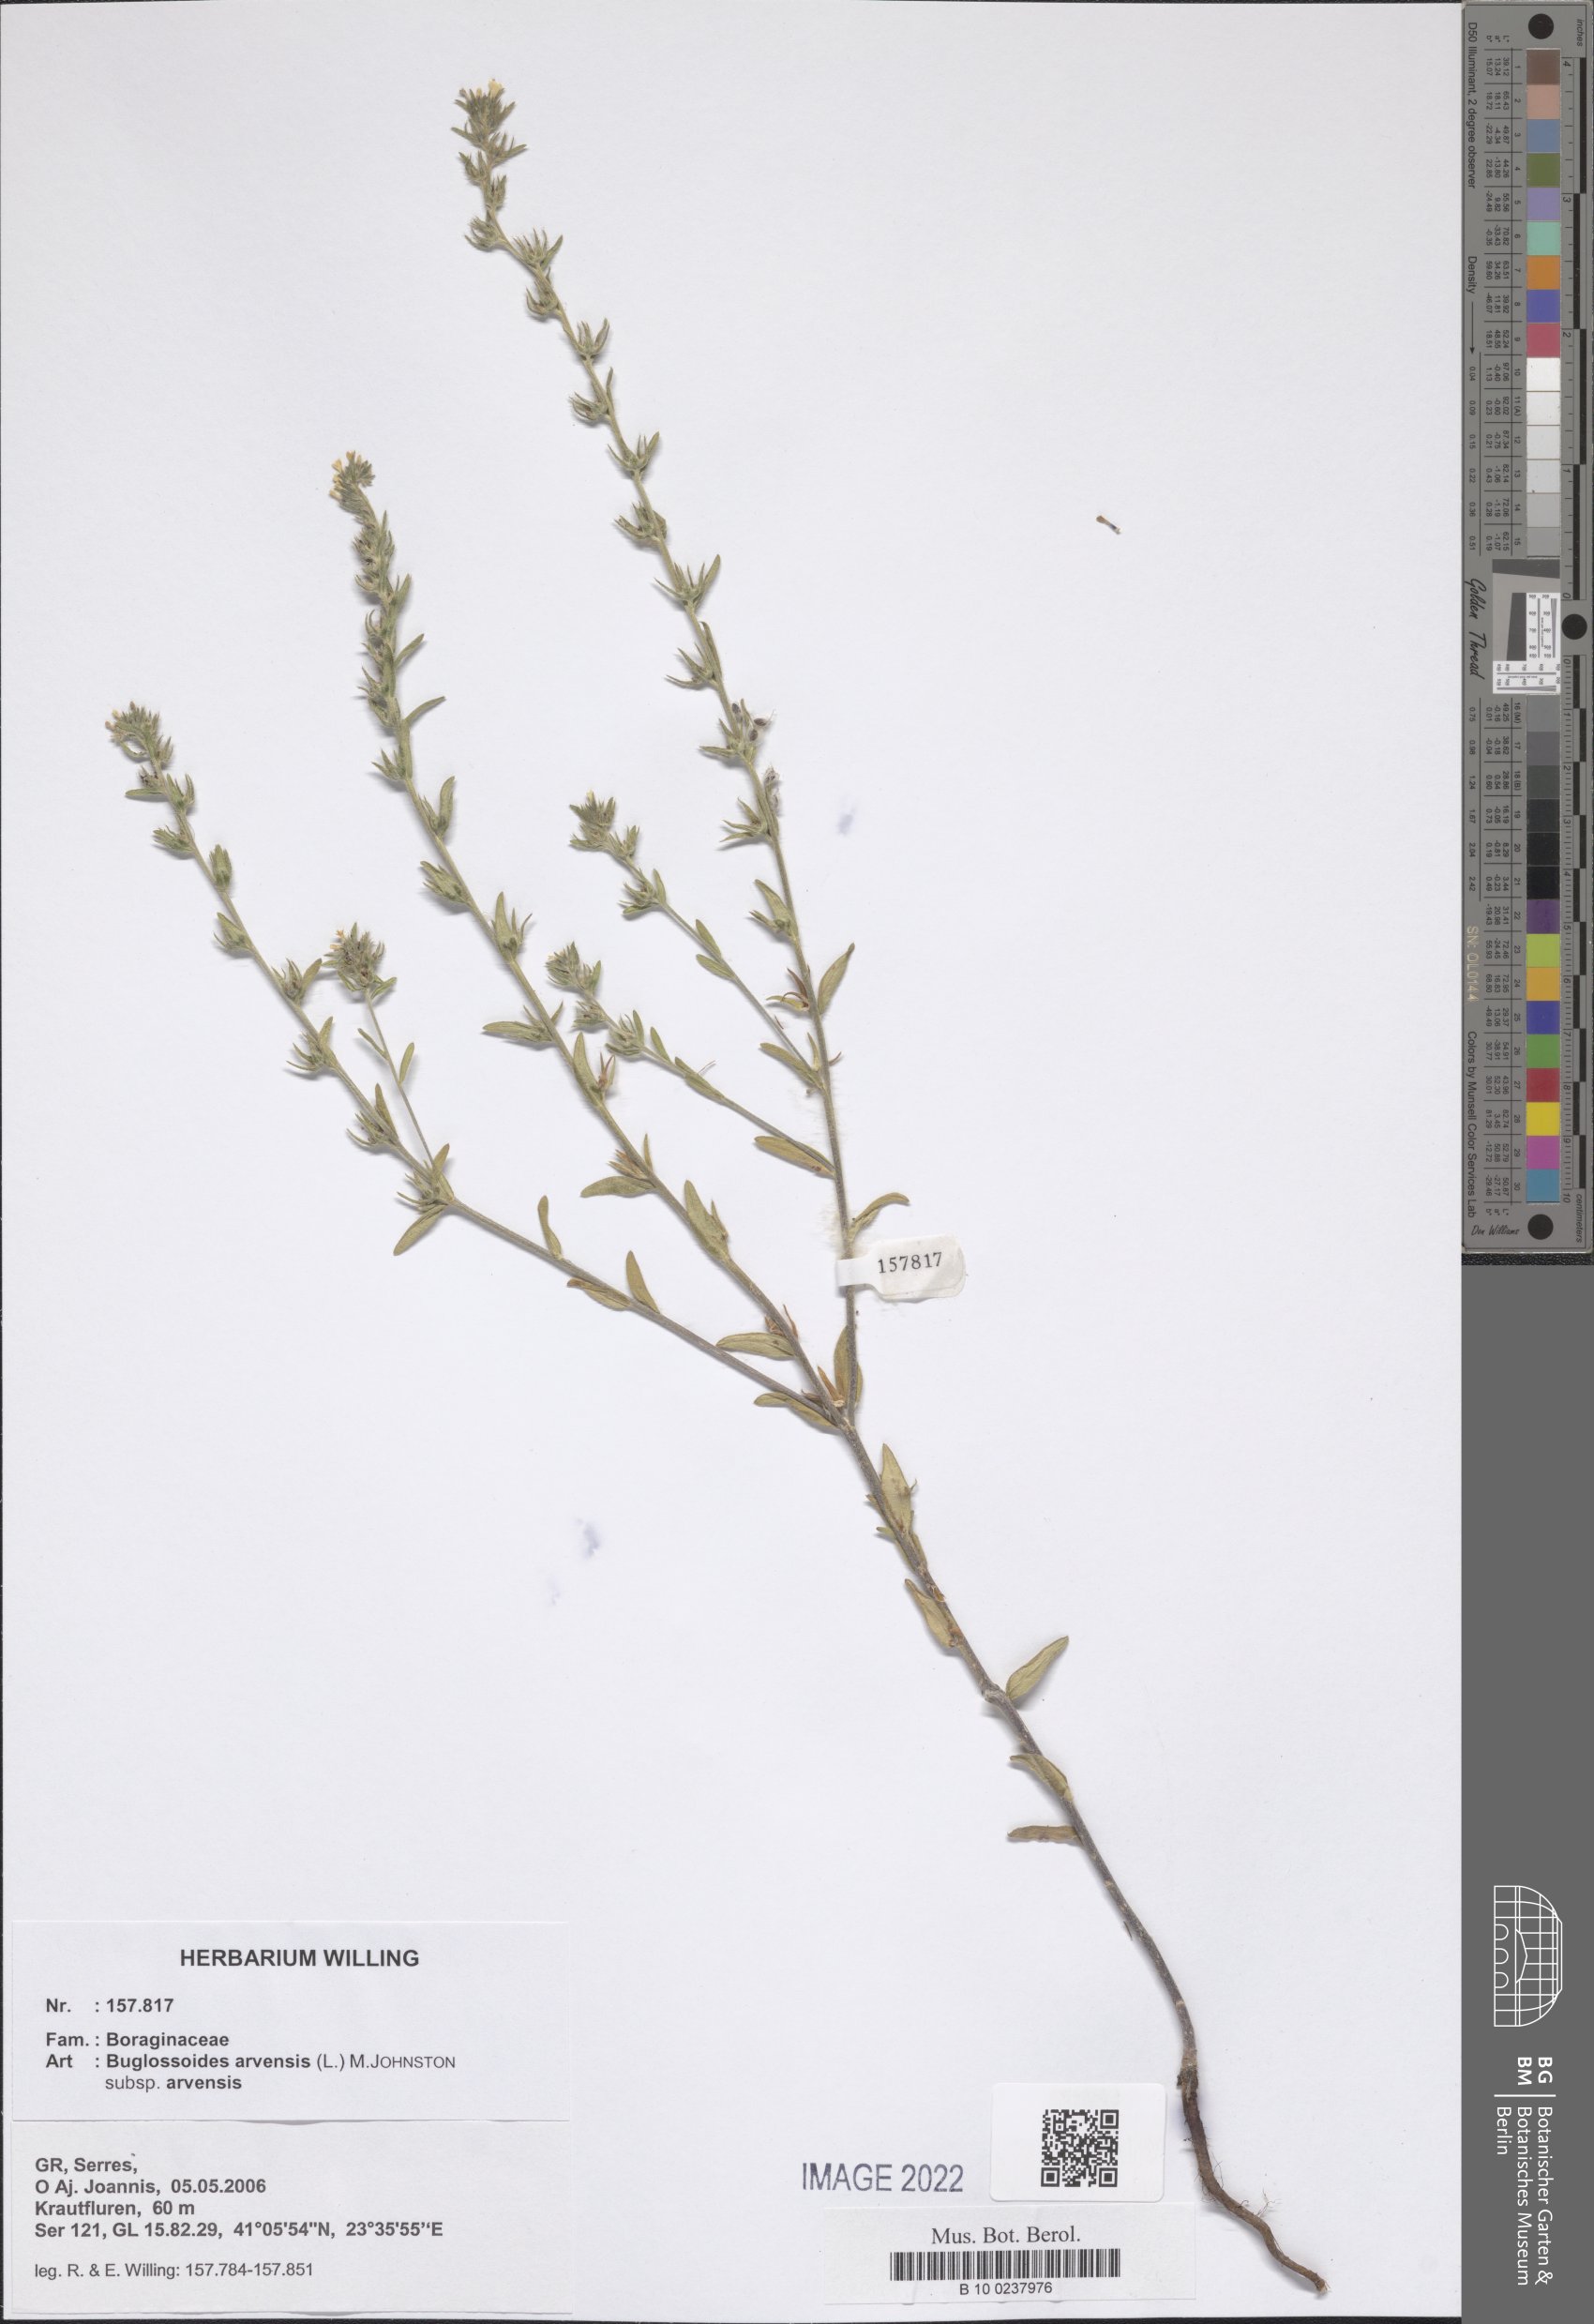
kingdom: Plantae
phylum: Tracheophyta
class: Magnoliopsida
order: Boraginales
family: Boraginaceae
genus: Buglossoides
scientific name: Buglossoides arvensis
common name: Corn gromwell
